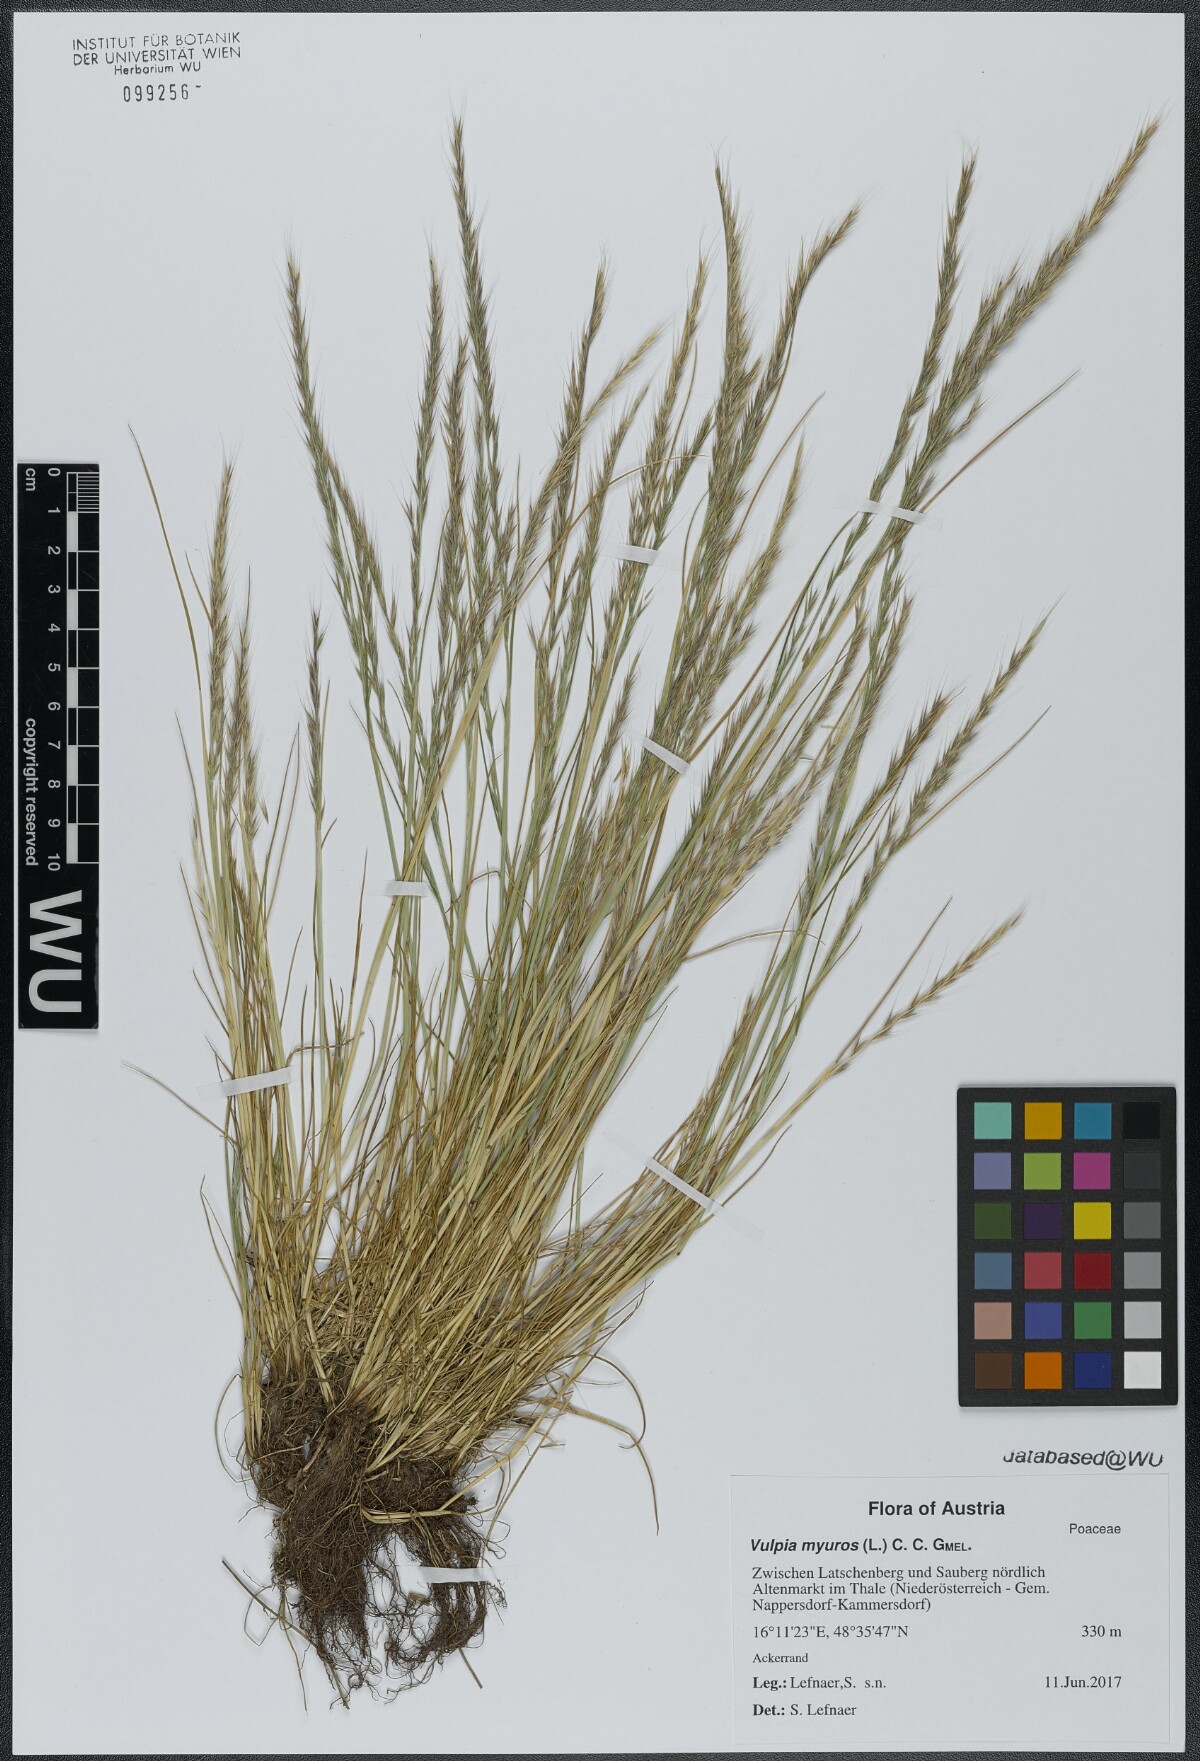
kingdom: Plantae
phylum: Tracheophyta
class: Liliopsida
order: Poales
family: Poaceae
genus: Festuca
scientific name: Festuca myuros
